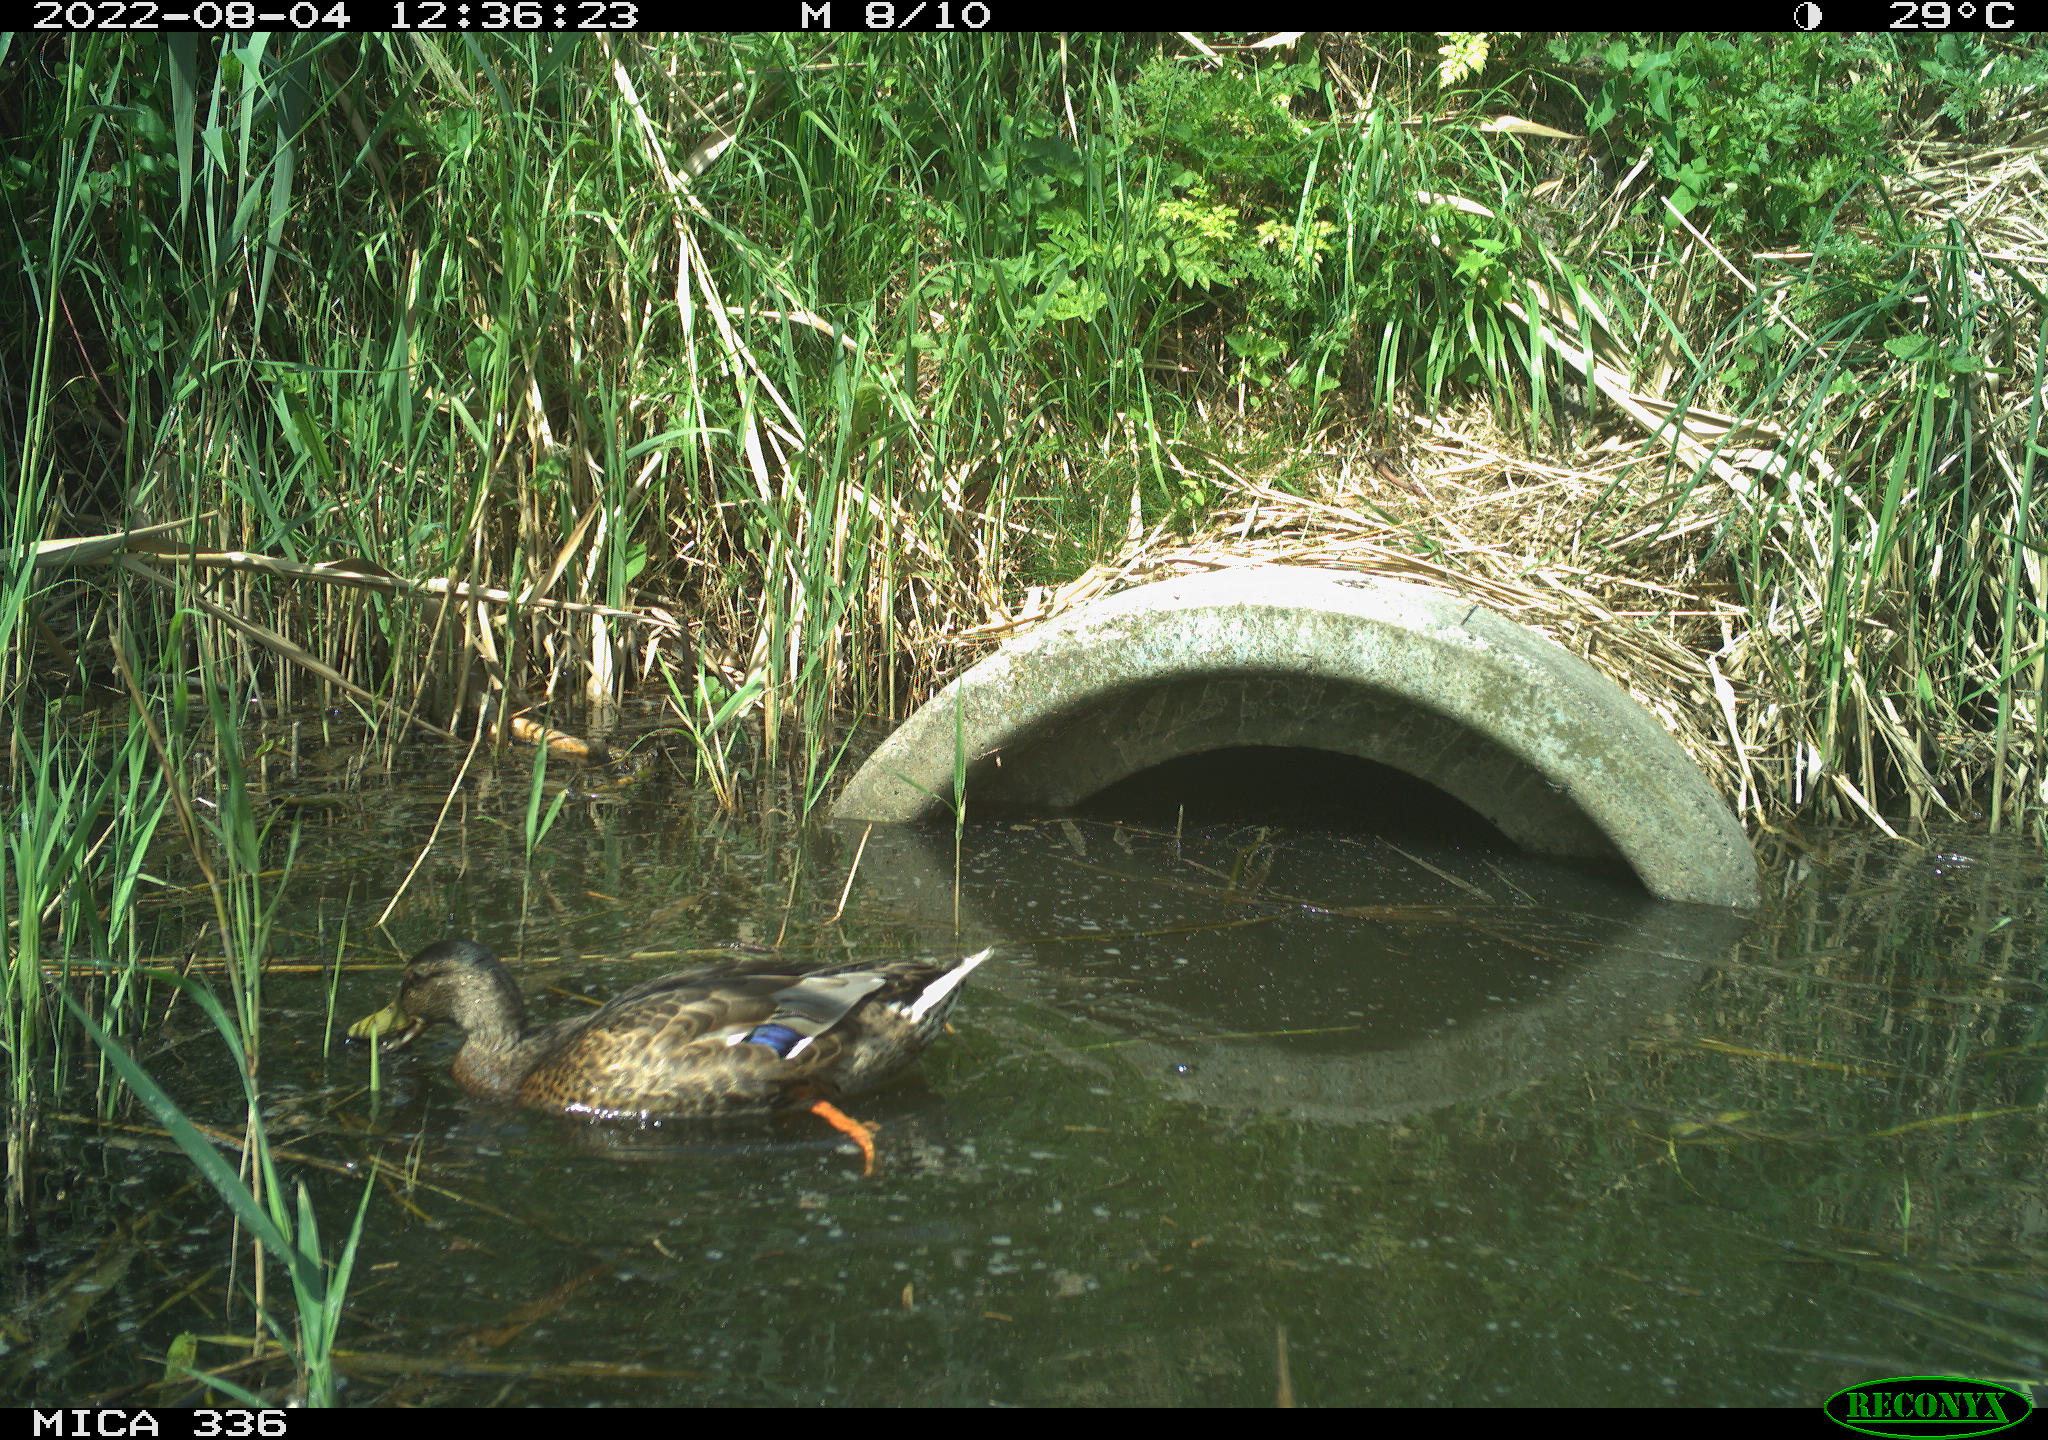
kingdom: Animalia
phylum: Chordata
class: Aves
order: Anseriformes
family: Anatidae
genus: Anas
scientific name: Anas platyrhynchos
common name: Mallard
